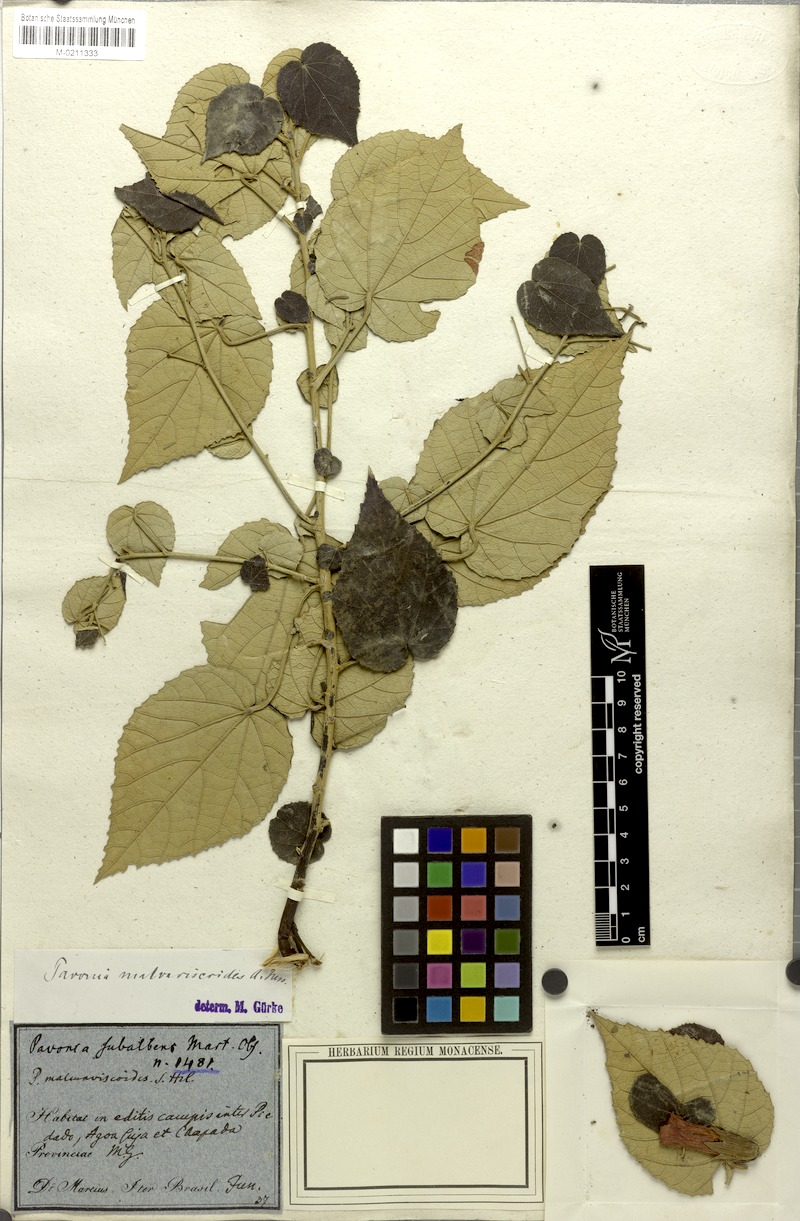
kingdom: Plantae
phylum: Tracheophyta
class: Magnoliopsida
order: Malvales
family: Malvaceae
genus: Pavonia
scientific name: Pavonia malvaviscoides
